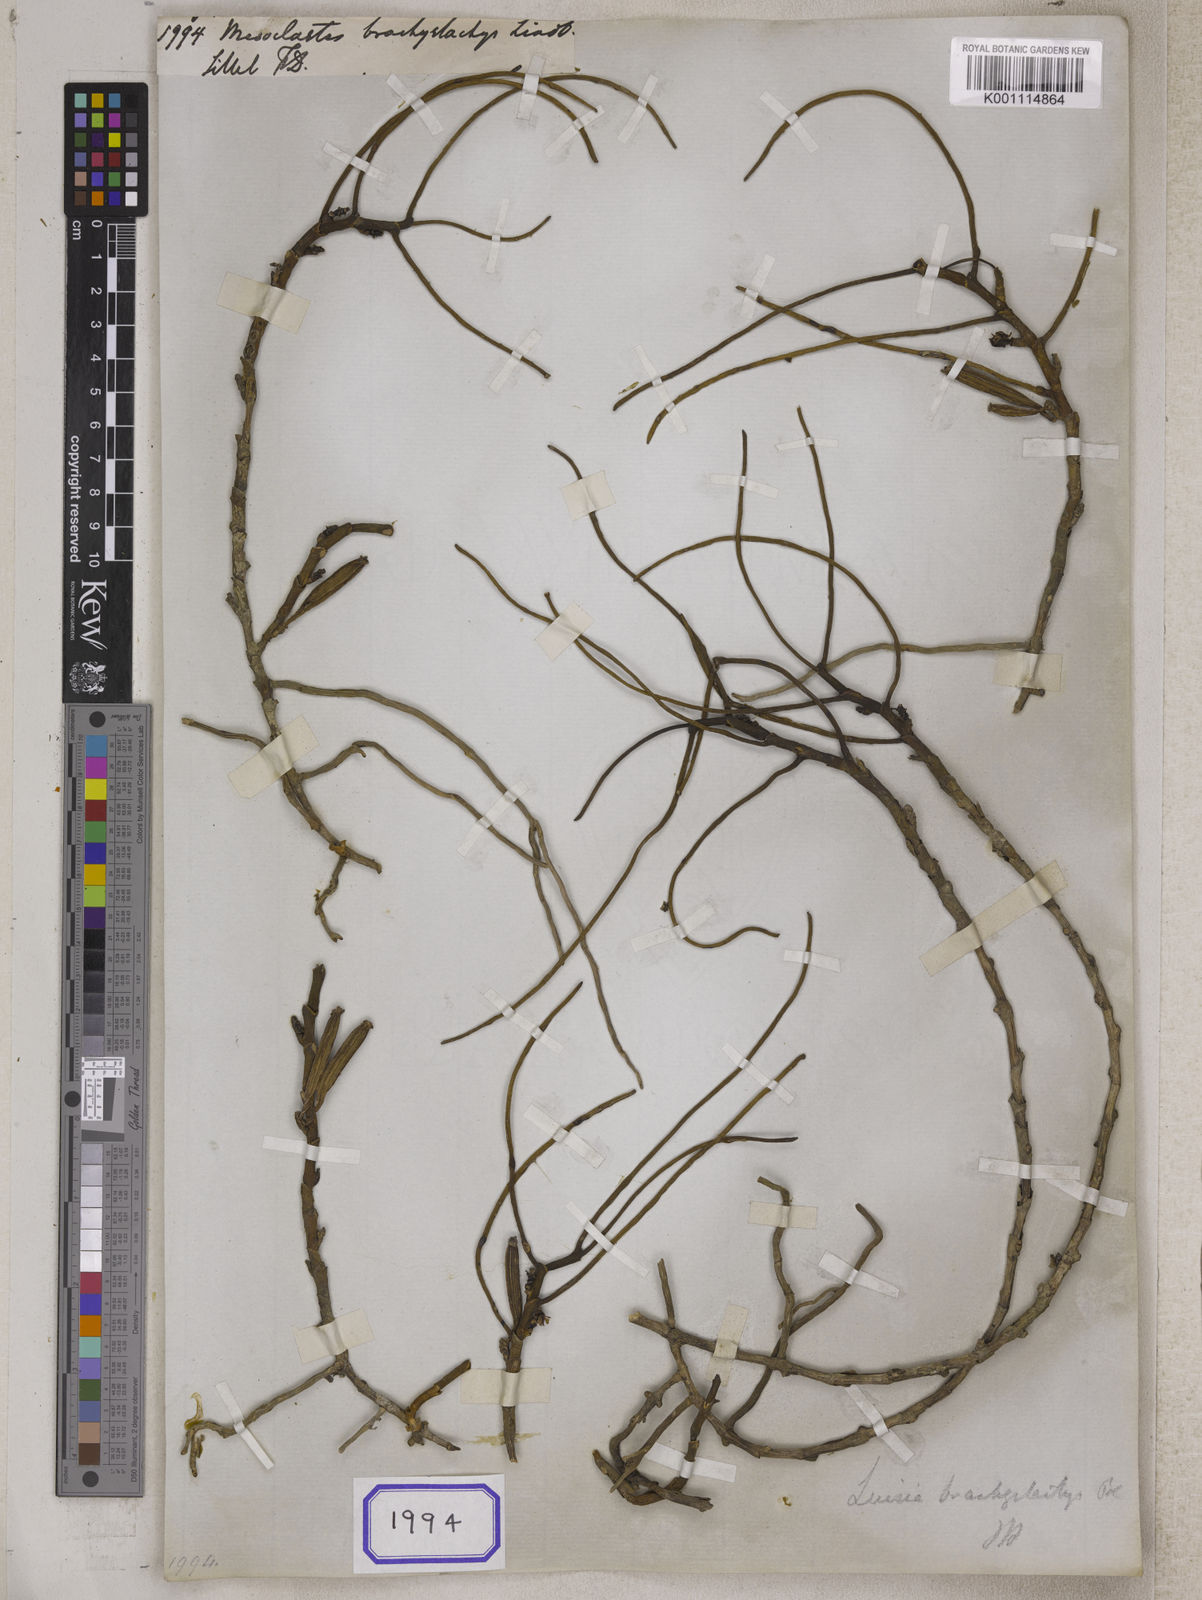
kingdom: Plantae
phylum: Tracheophyta
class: Liliopsida
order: Asparagales
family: Orchidaceae
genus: Luisia
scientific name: Luisia brachystachys
